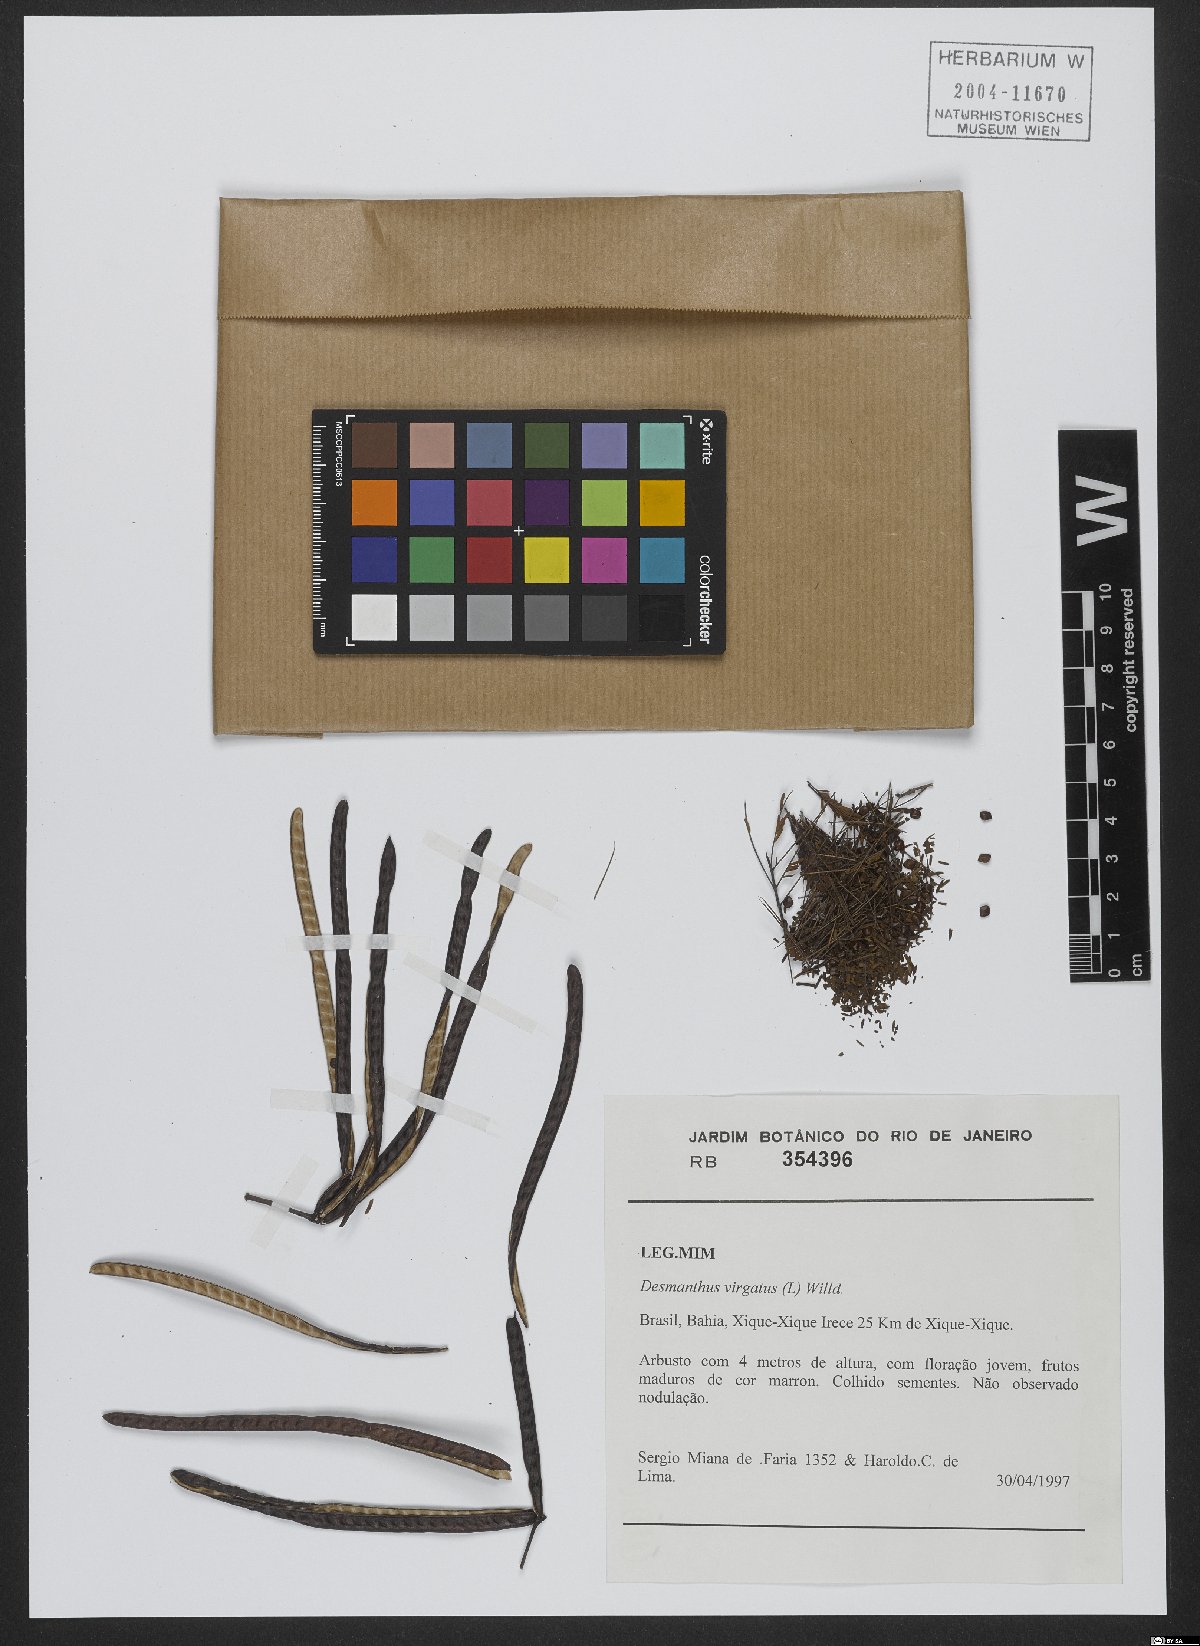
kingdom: Plantae
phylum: Tracheophyta
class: Magnoliopsida
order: Fabales
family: Fabaceae
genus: Desmanthus
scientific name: Desmanthus virgatus
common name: Wild tantan
